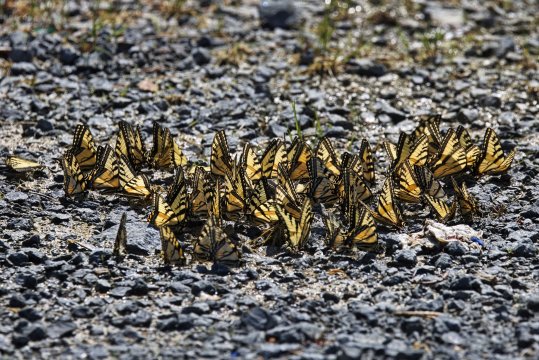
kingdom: Animalia
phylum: Arthropoda
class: Insecta
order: Lepidoptera
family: Papilionidae
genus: Pterourus
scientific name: Pterourus canadensis
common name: Canadian Tiger Swallowtail
